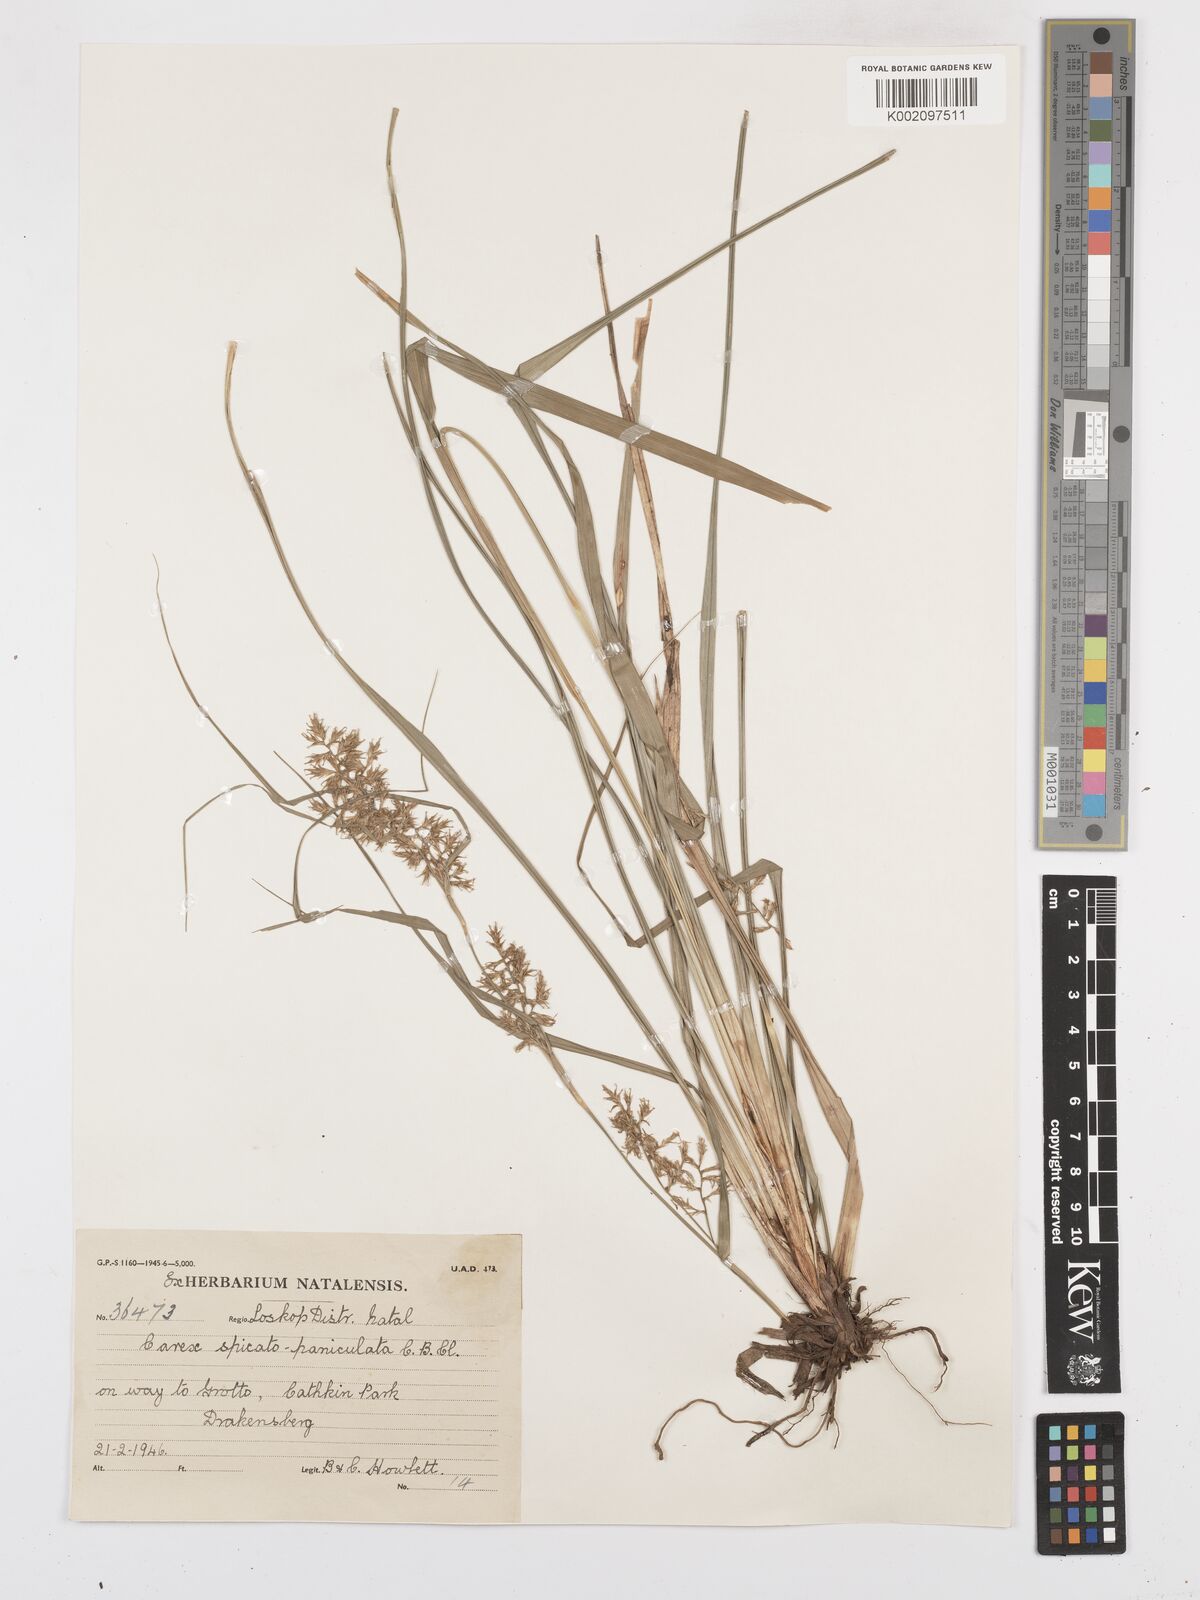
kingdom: Plantae
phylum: Tracheophyta
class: Liliopsida
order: Poales
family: Cyperaceae
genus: Carex
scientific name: Carex spicatopaniculata
